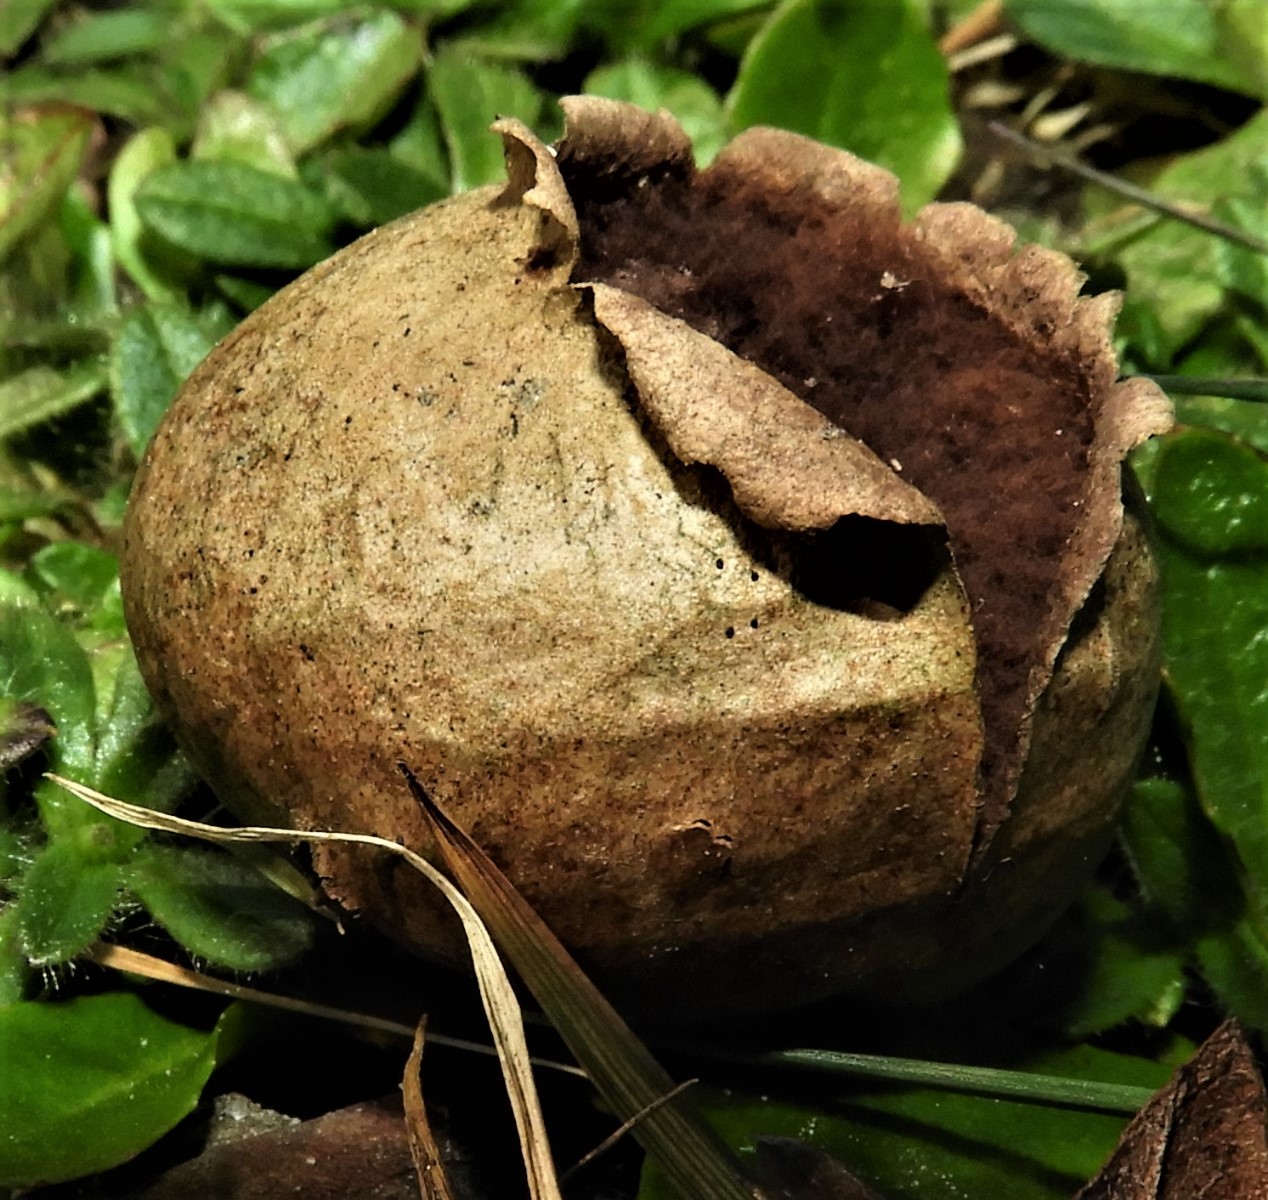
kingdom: Fungi
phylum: Basidiomycota
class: Agaricomycetes
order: Agaricales
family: Lycoperdaceae
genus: Bovista
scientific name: Bovista nigrescens
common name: sortagtig bovist
